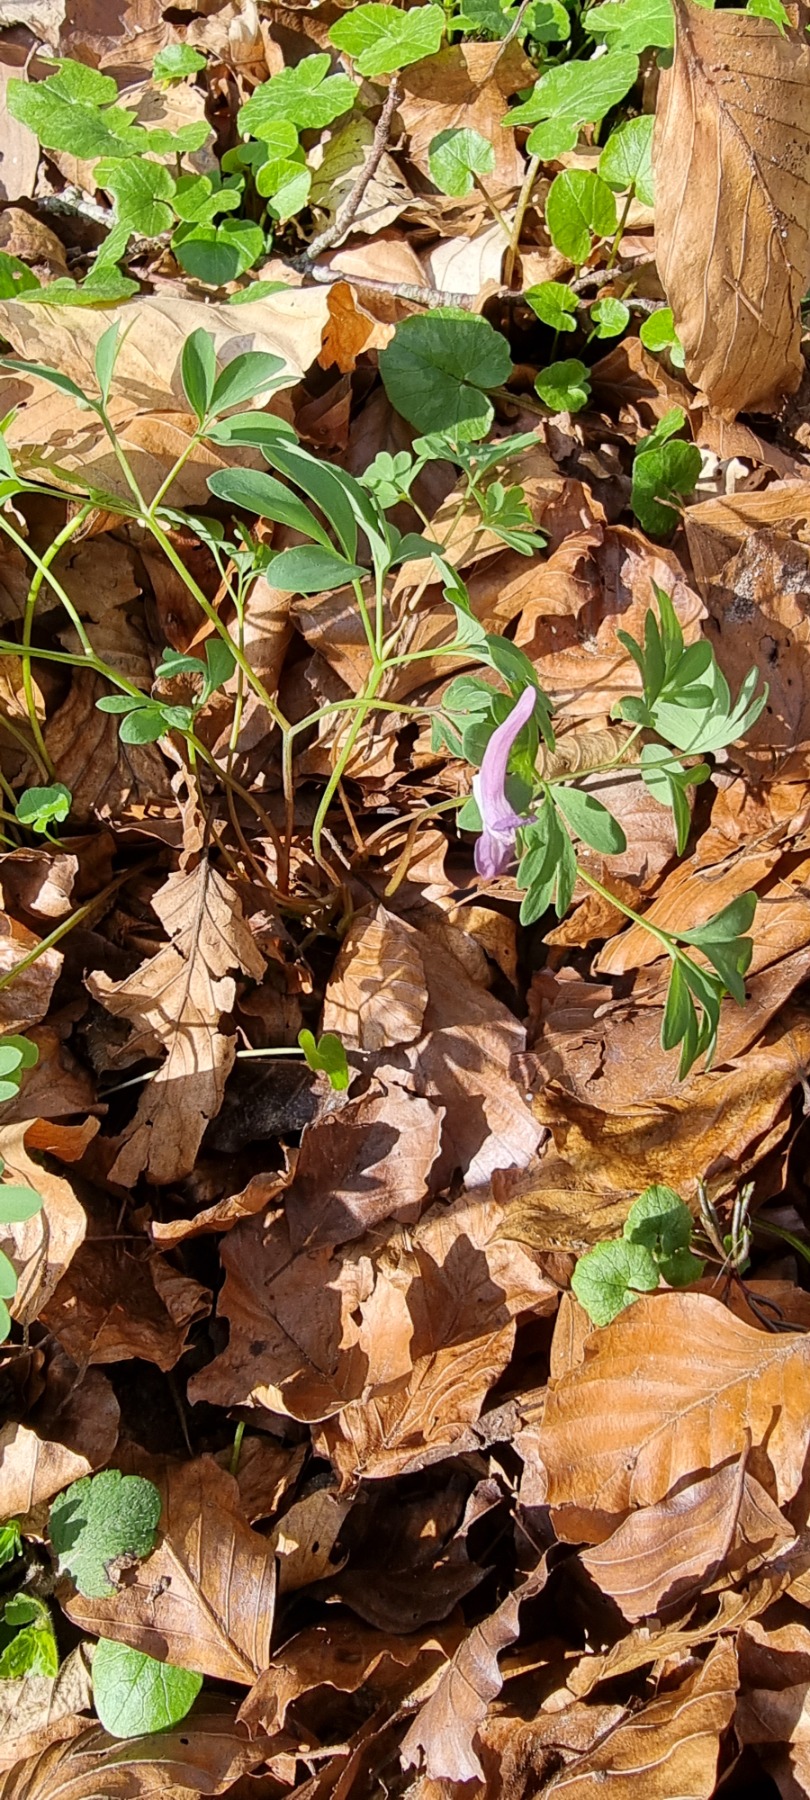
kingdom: Plantae
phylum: Tracheophyta
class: Magnoliopsida
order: Ranunculales
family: Papaveraceae
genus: Corydalis
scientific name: Corydalis solida
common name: Langstilket lærkespore
